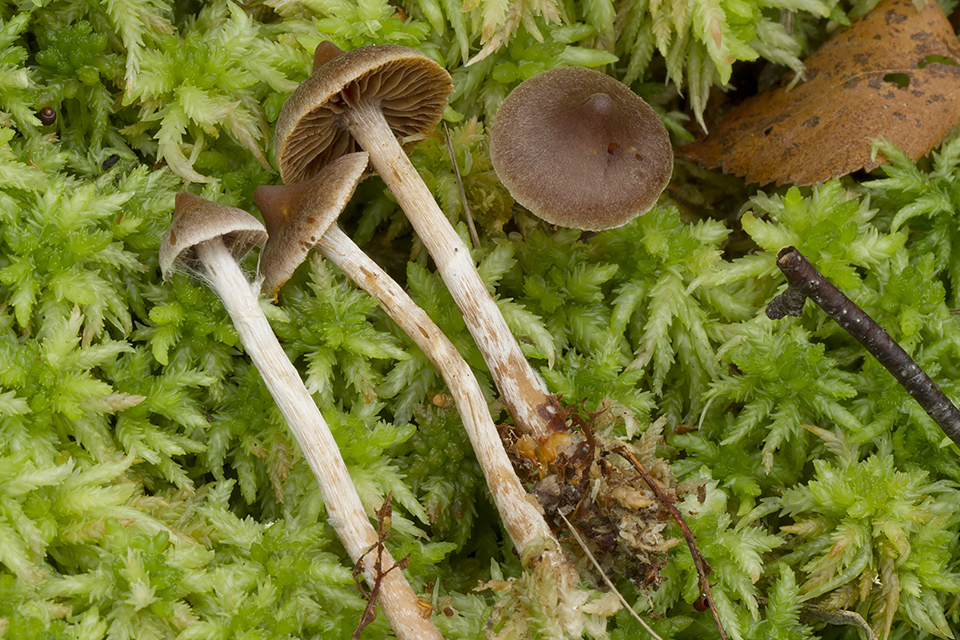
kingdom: Fungi
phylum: Basidiomycota
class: Agaricomycetes
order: Agaricales
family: Cortinariaceae
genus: Cortinarius
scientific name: Cortinarius comptulus
